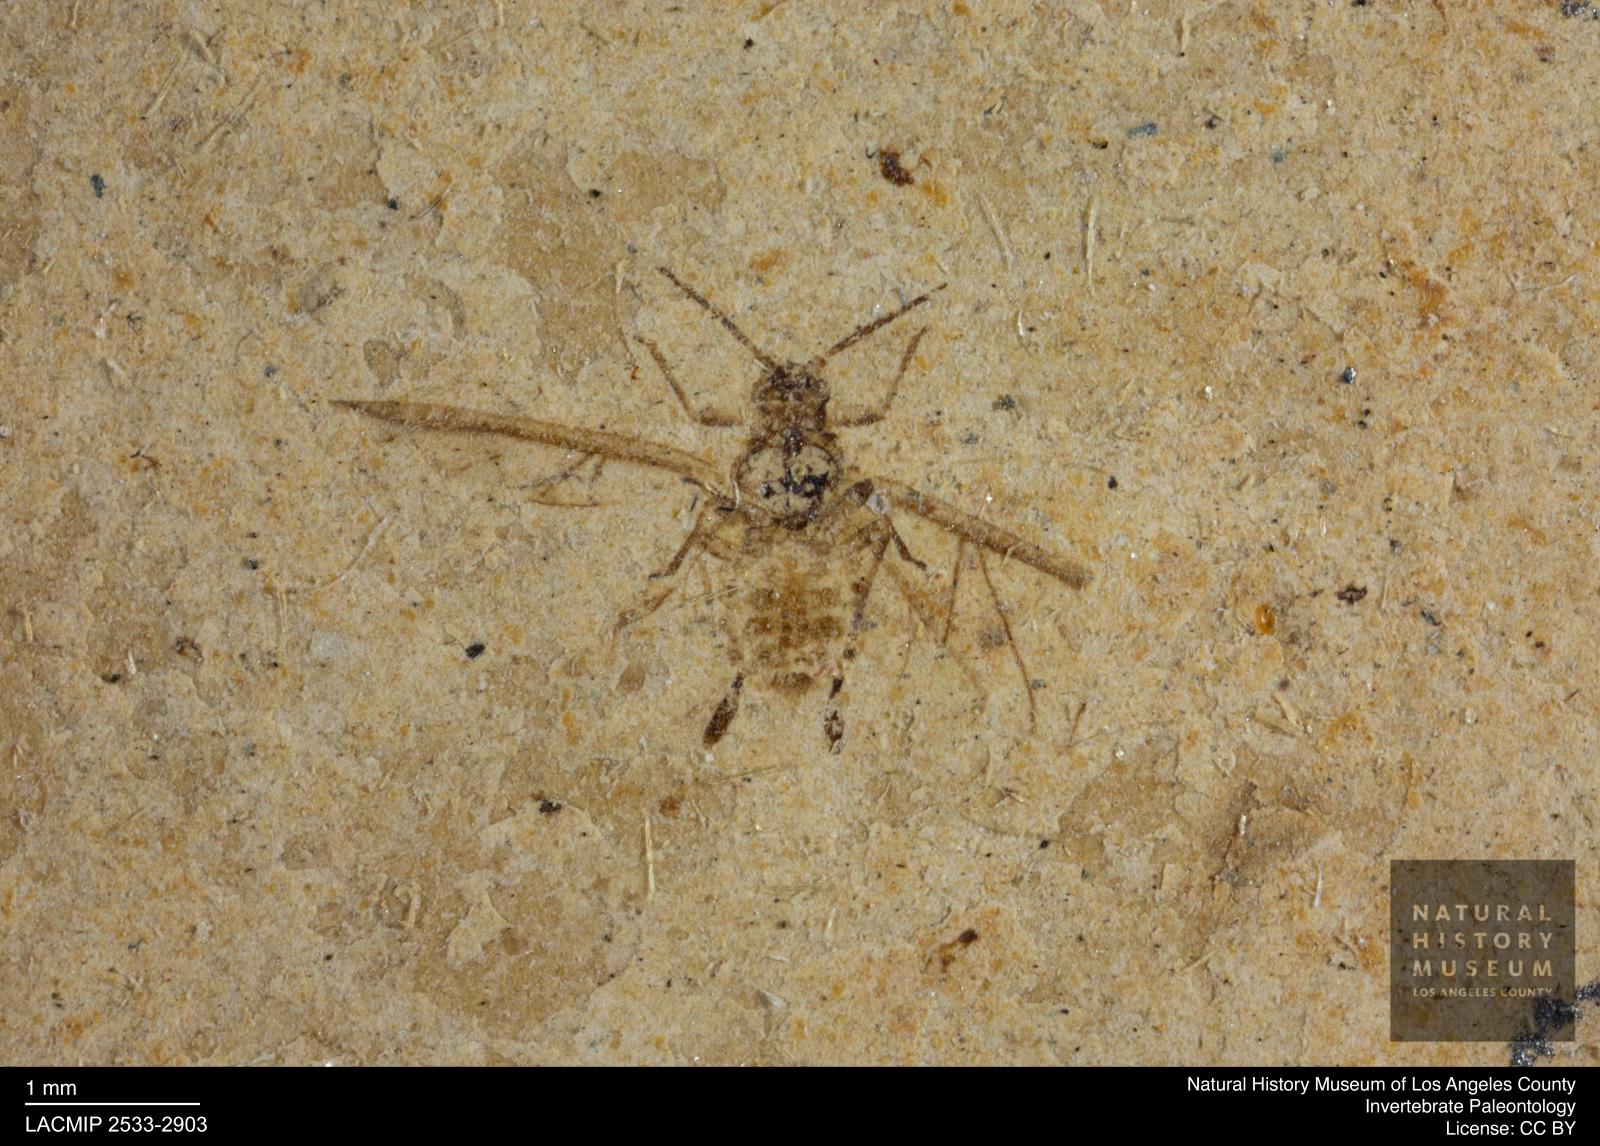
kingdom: Animalia
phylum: Arthropoda
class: Insecta
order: Hemiptera
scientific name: Hemiptera
